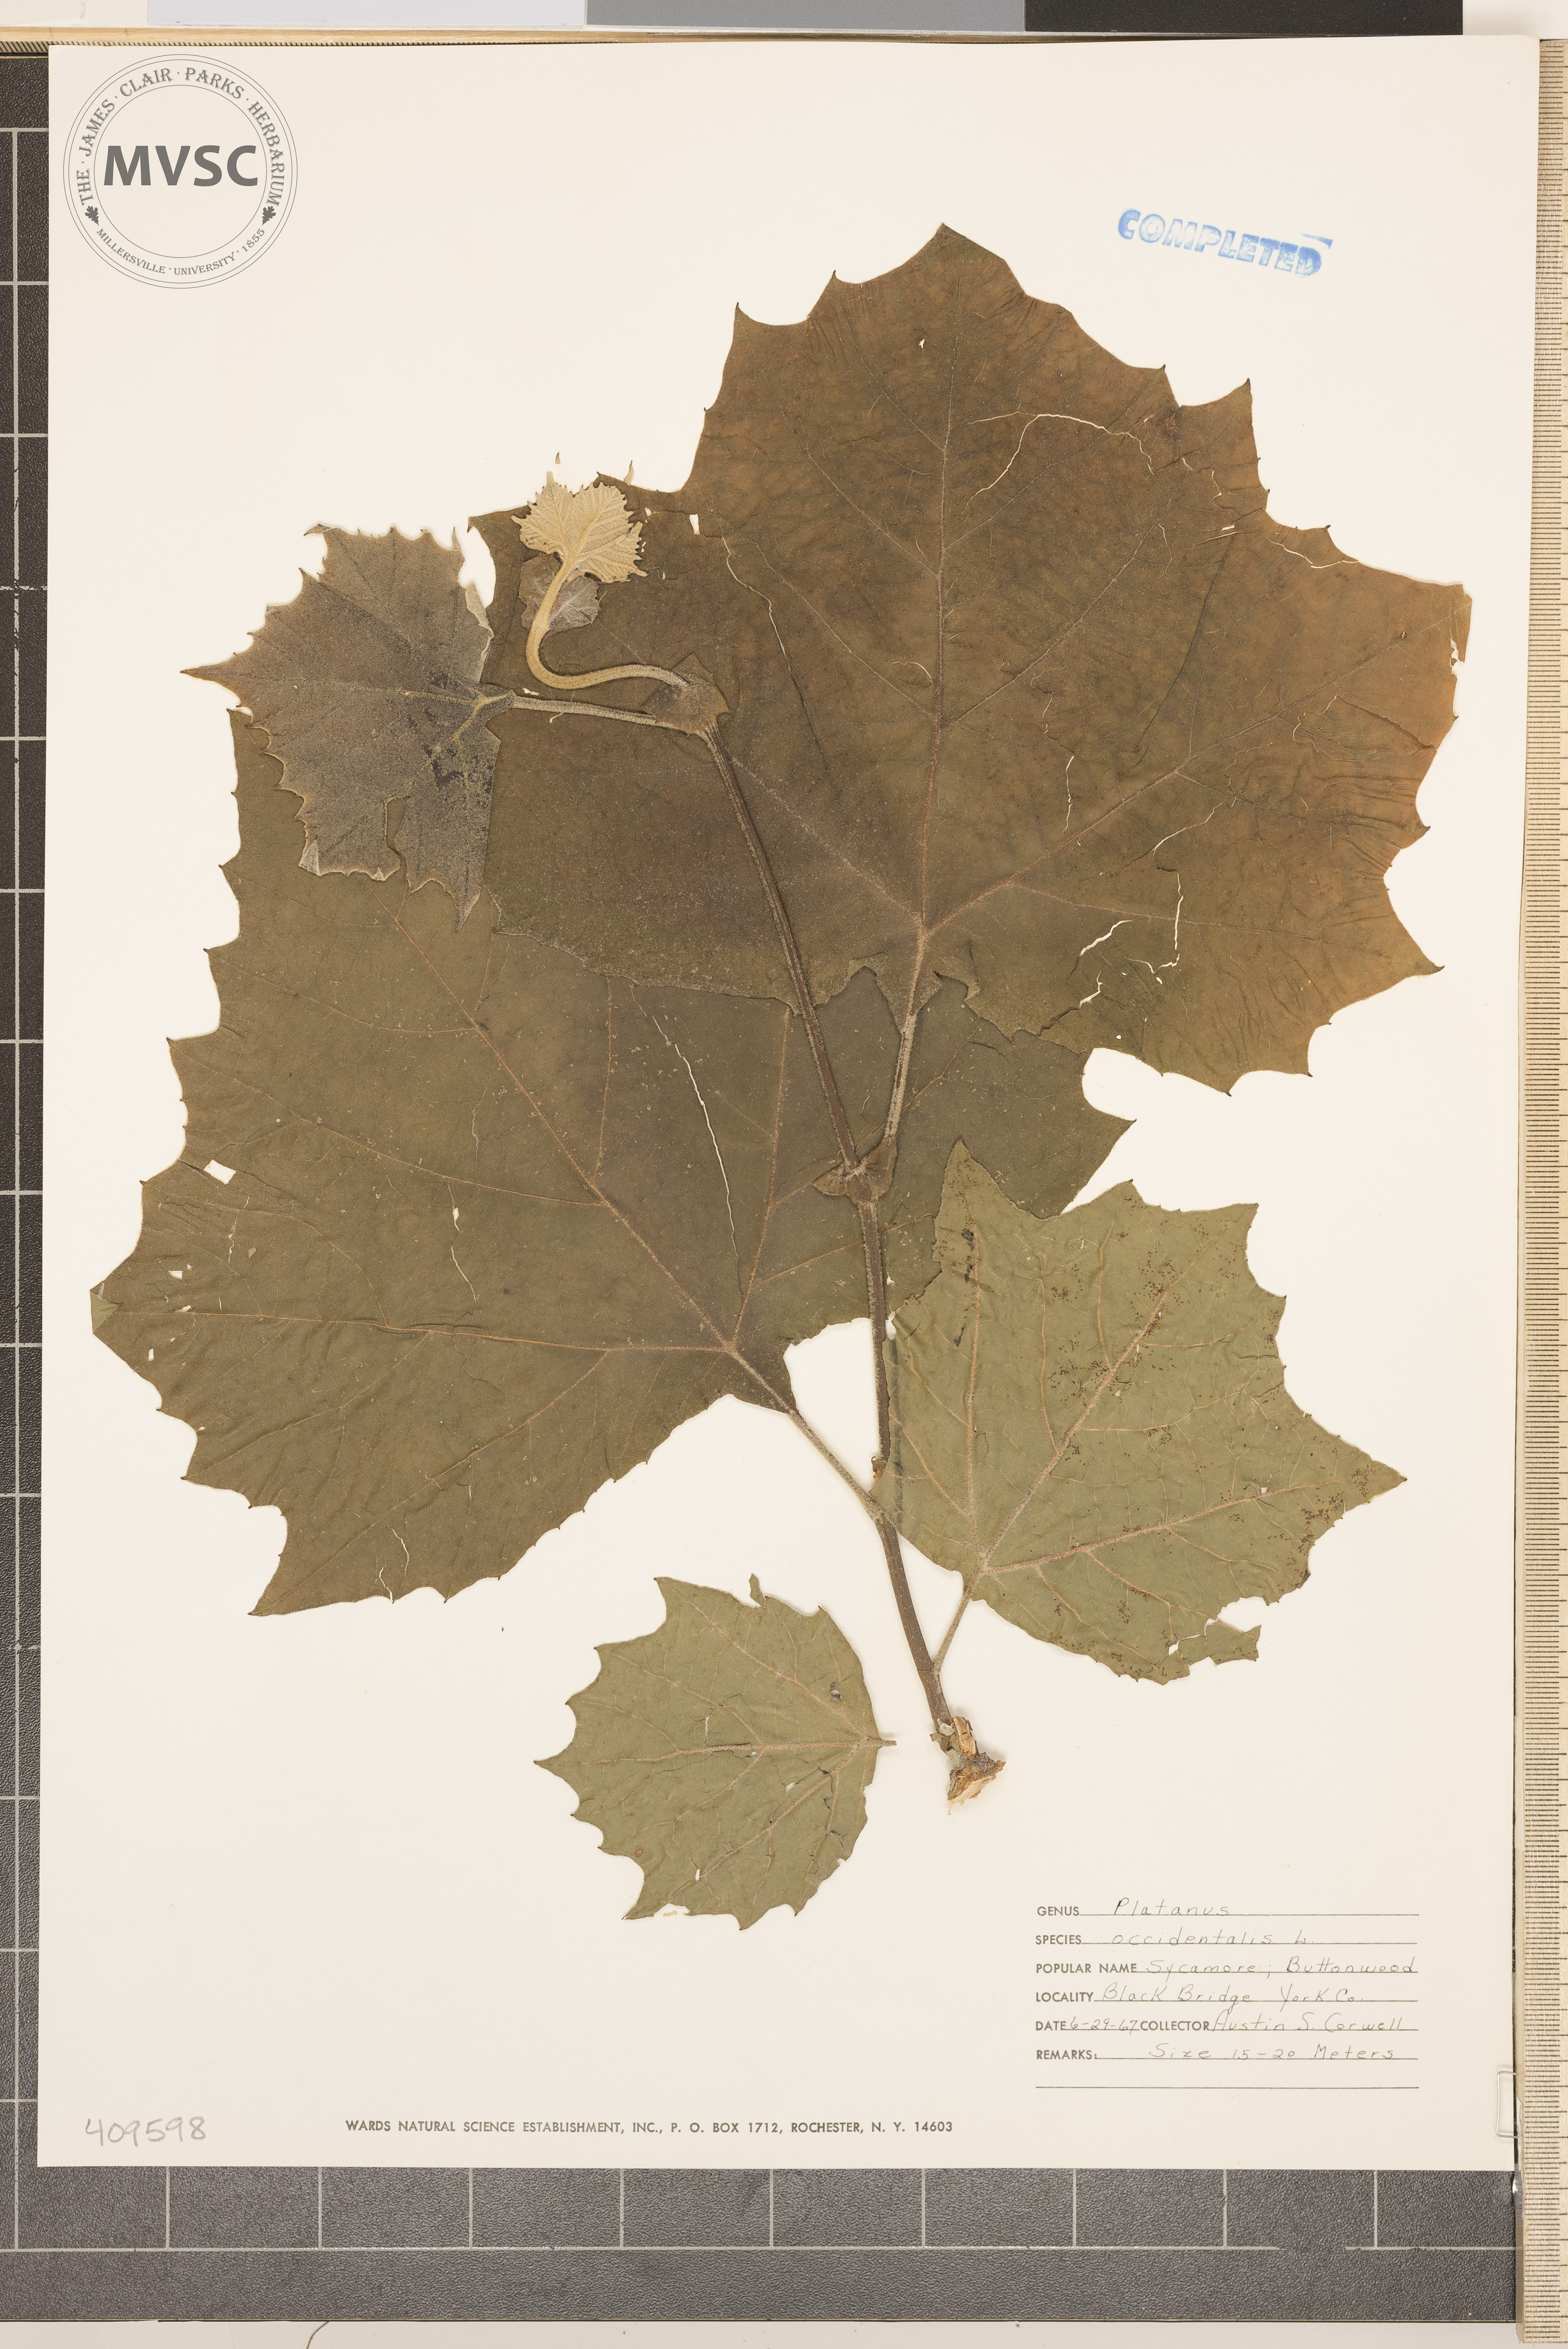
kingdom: Plantae
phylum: Tracheophyta
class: Magnoliopsida
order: Proteales
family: Platanaceae
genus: Platanus
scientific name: Platanus occidentalis
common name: American sycamore
